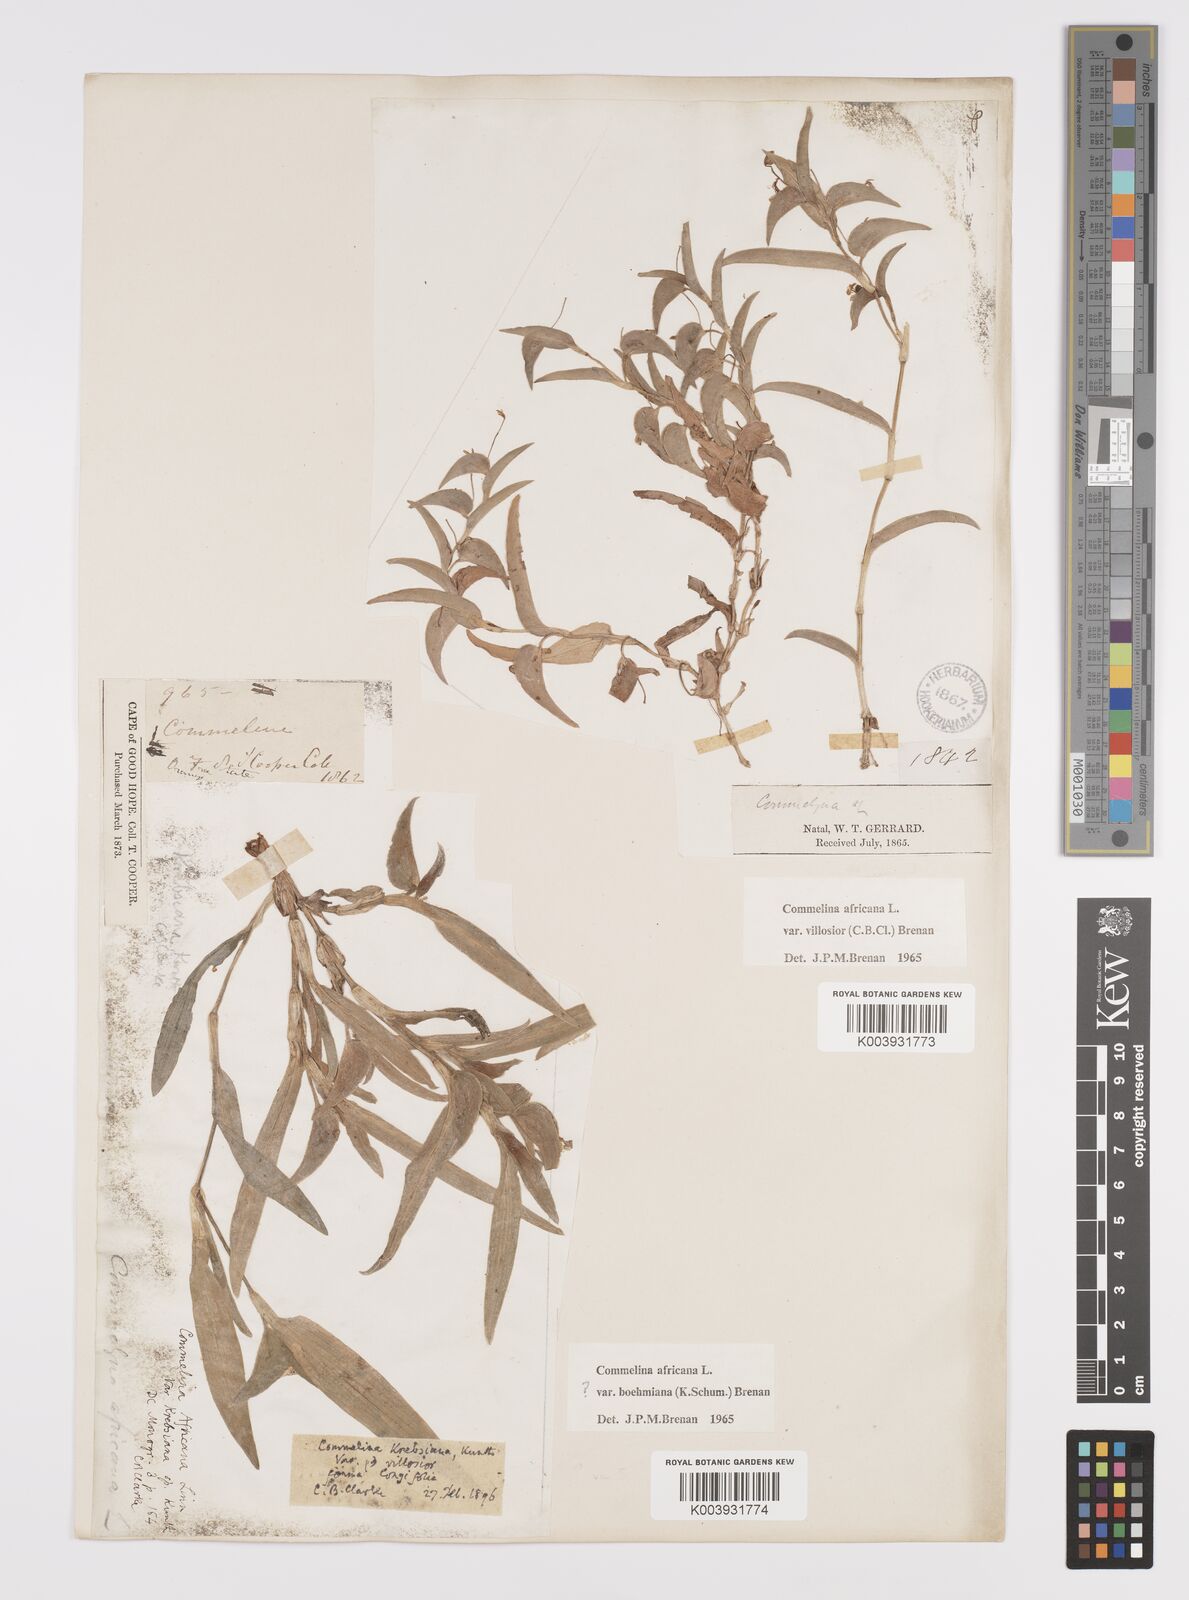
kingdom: Plantae
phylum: Tracheophyta
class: Liliopsida
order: Commelinales
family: Commelinaceae
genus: Commelina
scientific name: Commelina africana
